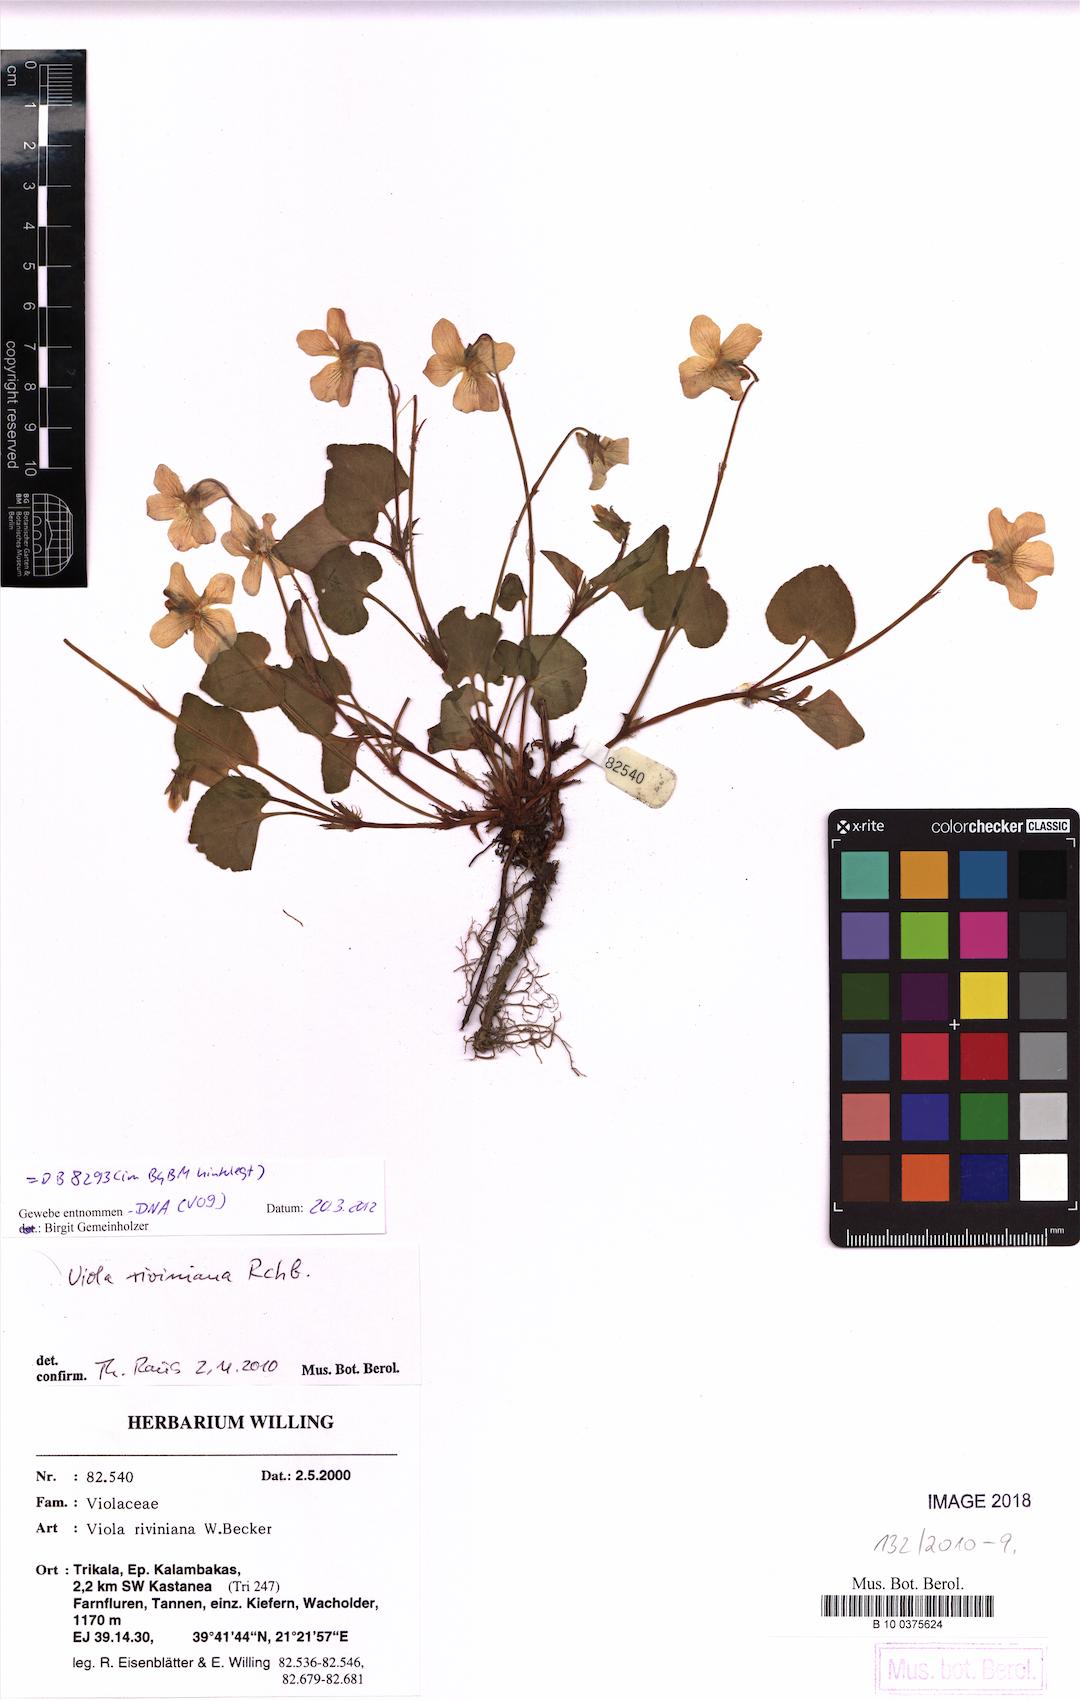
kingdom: Plantae
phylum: Tracheophyta
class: Magnoliopsida
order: Malpighiales
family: Violaceae
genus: Viola
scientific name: Viola riviniana
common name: Common dog-violet
